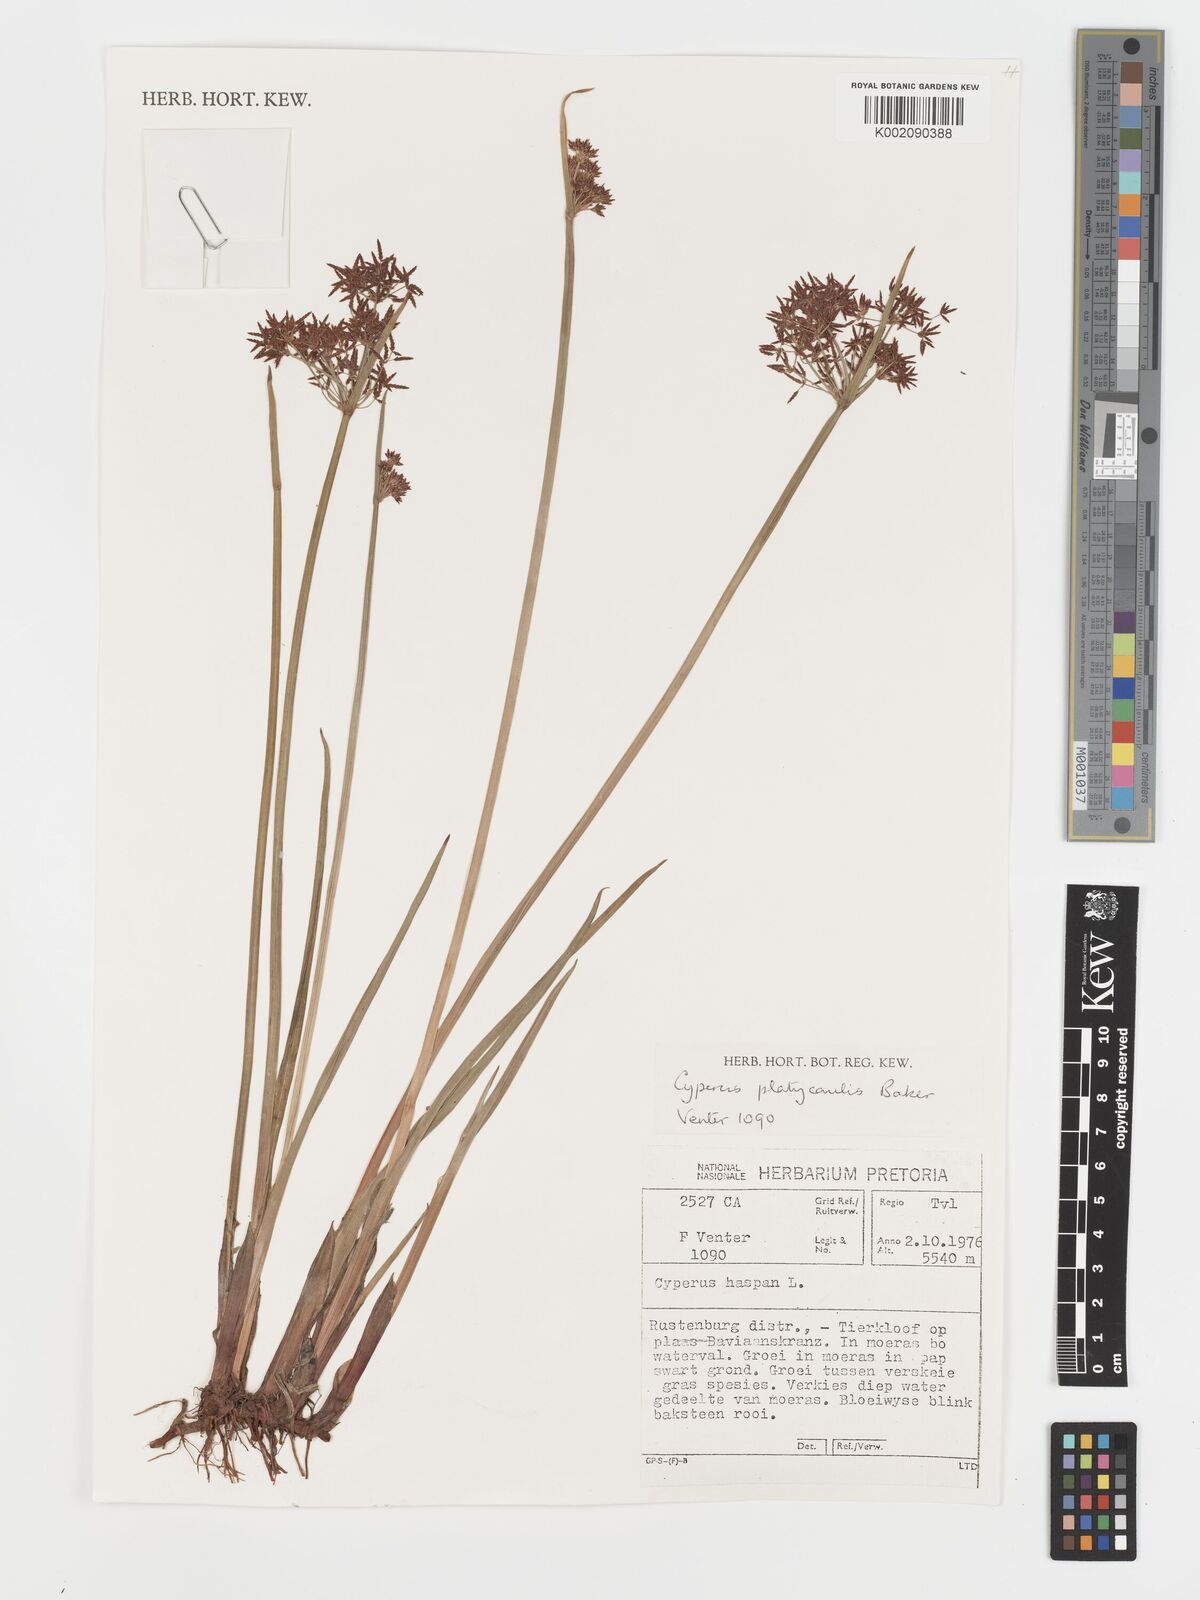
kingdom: Plantae
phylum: Tracheophyta
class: Liliopsida
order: Poales
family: Cyperaceae
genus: Cyperus
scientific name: Cyperus platycaulis
